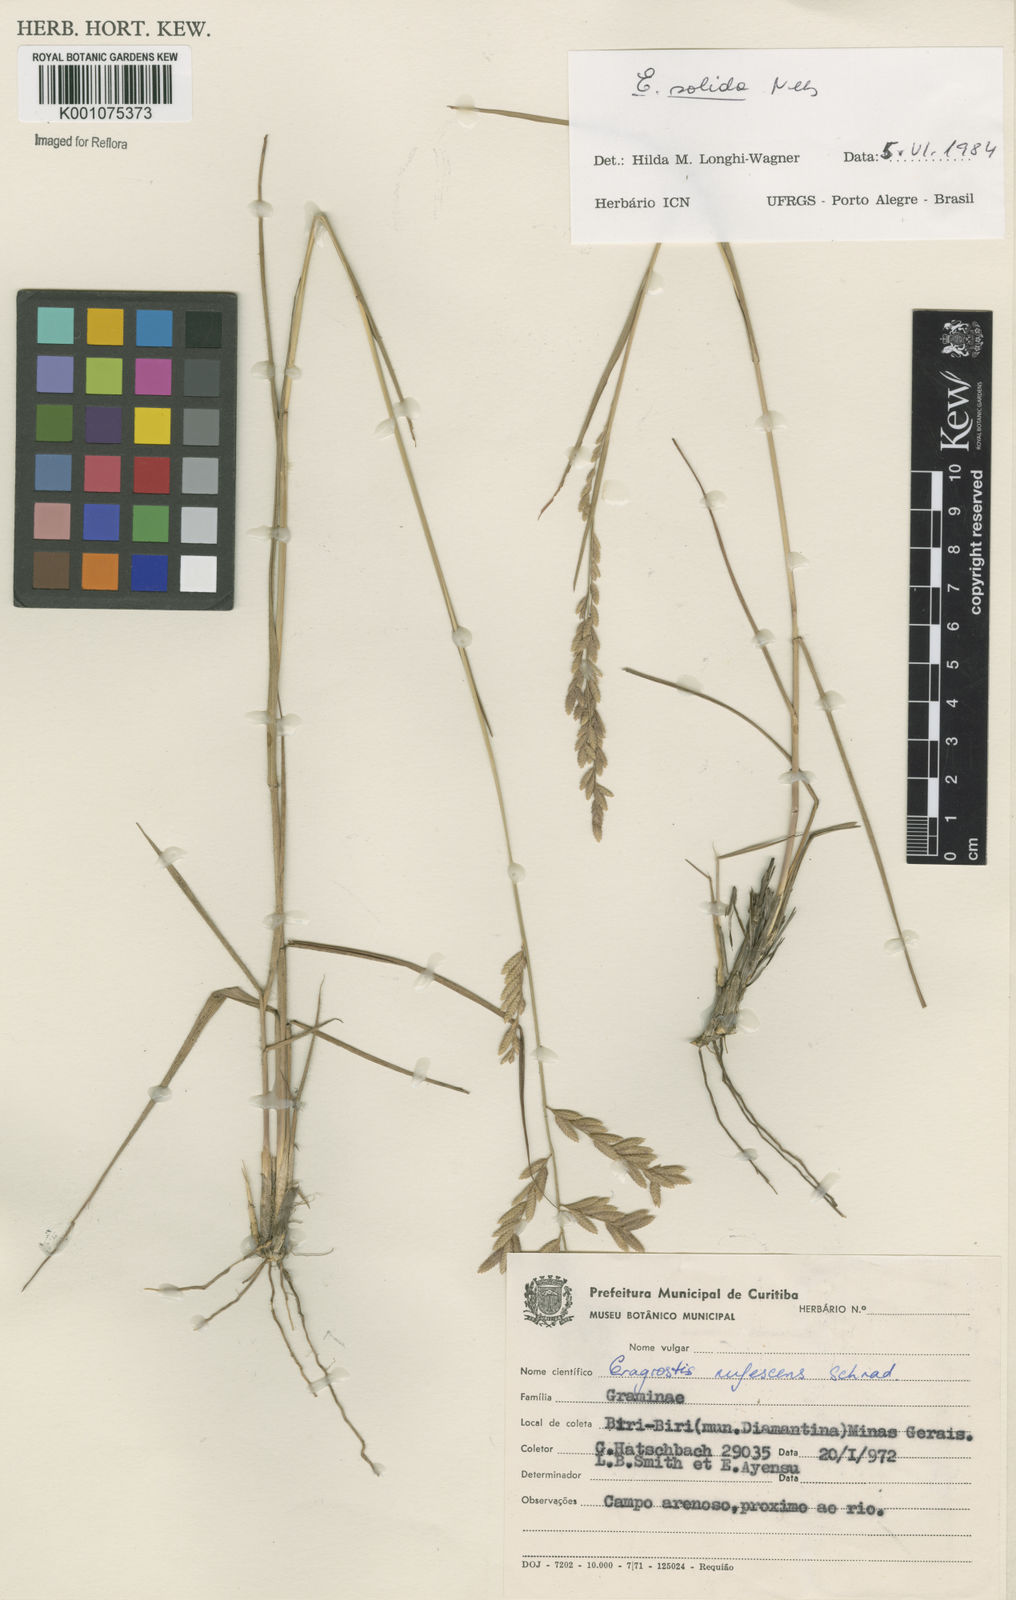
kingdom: Plantae
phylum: Tracheophyta
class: Liliopsida
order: Poales
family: Poaceae
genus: Eragrostis
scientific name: Eragrostis solida
